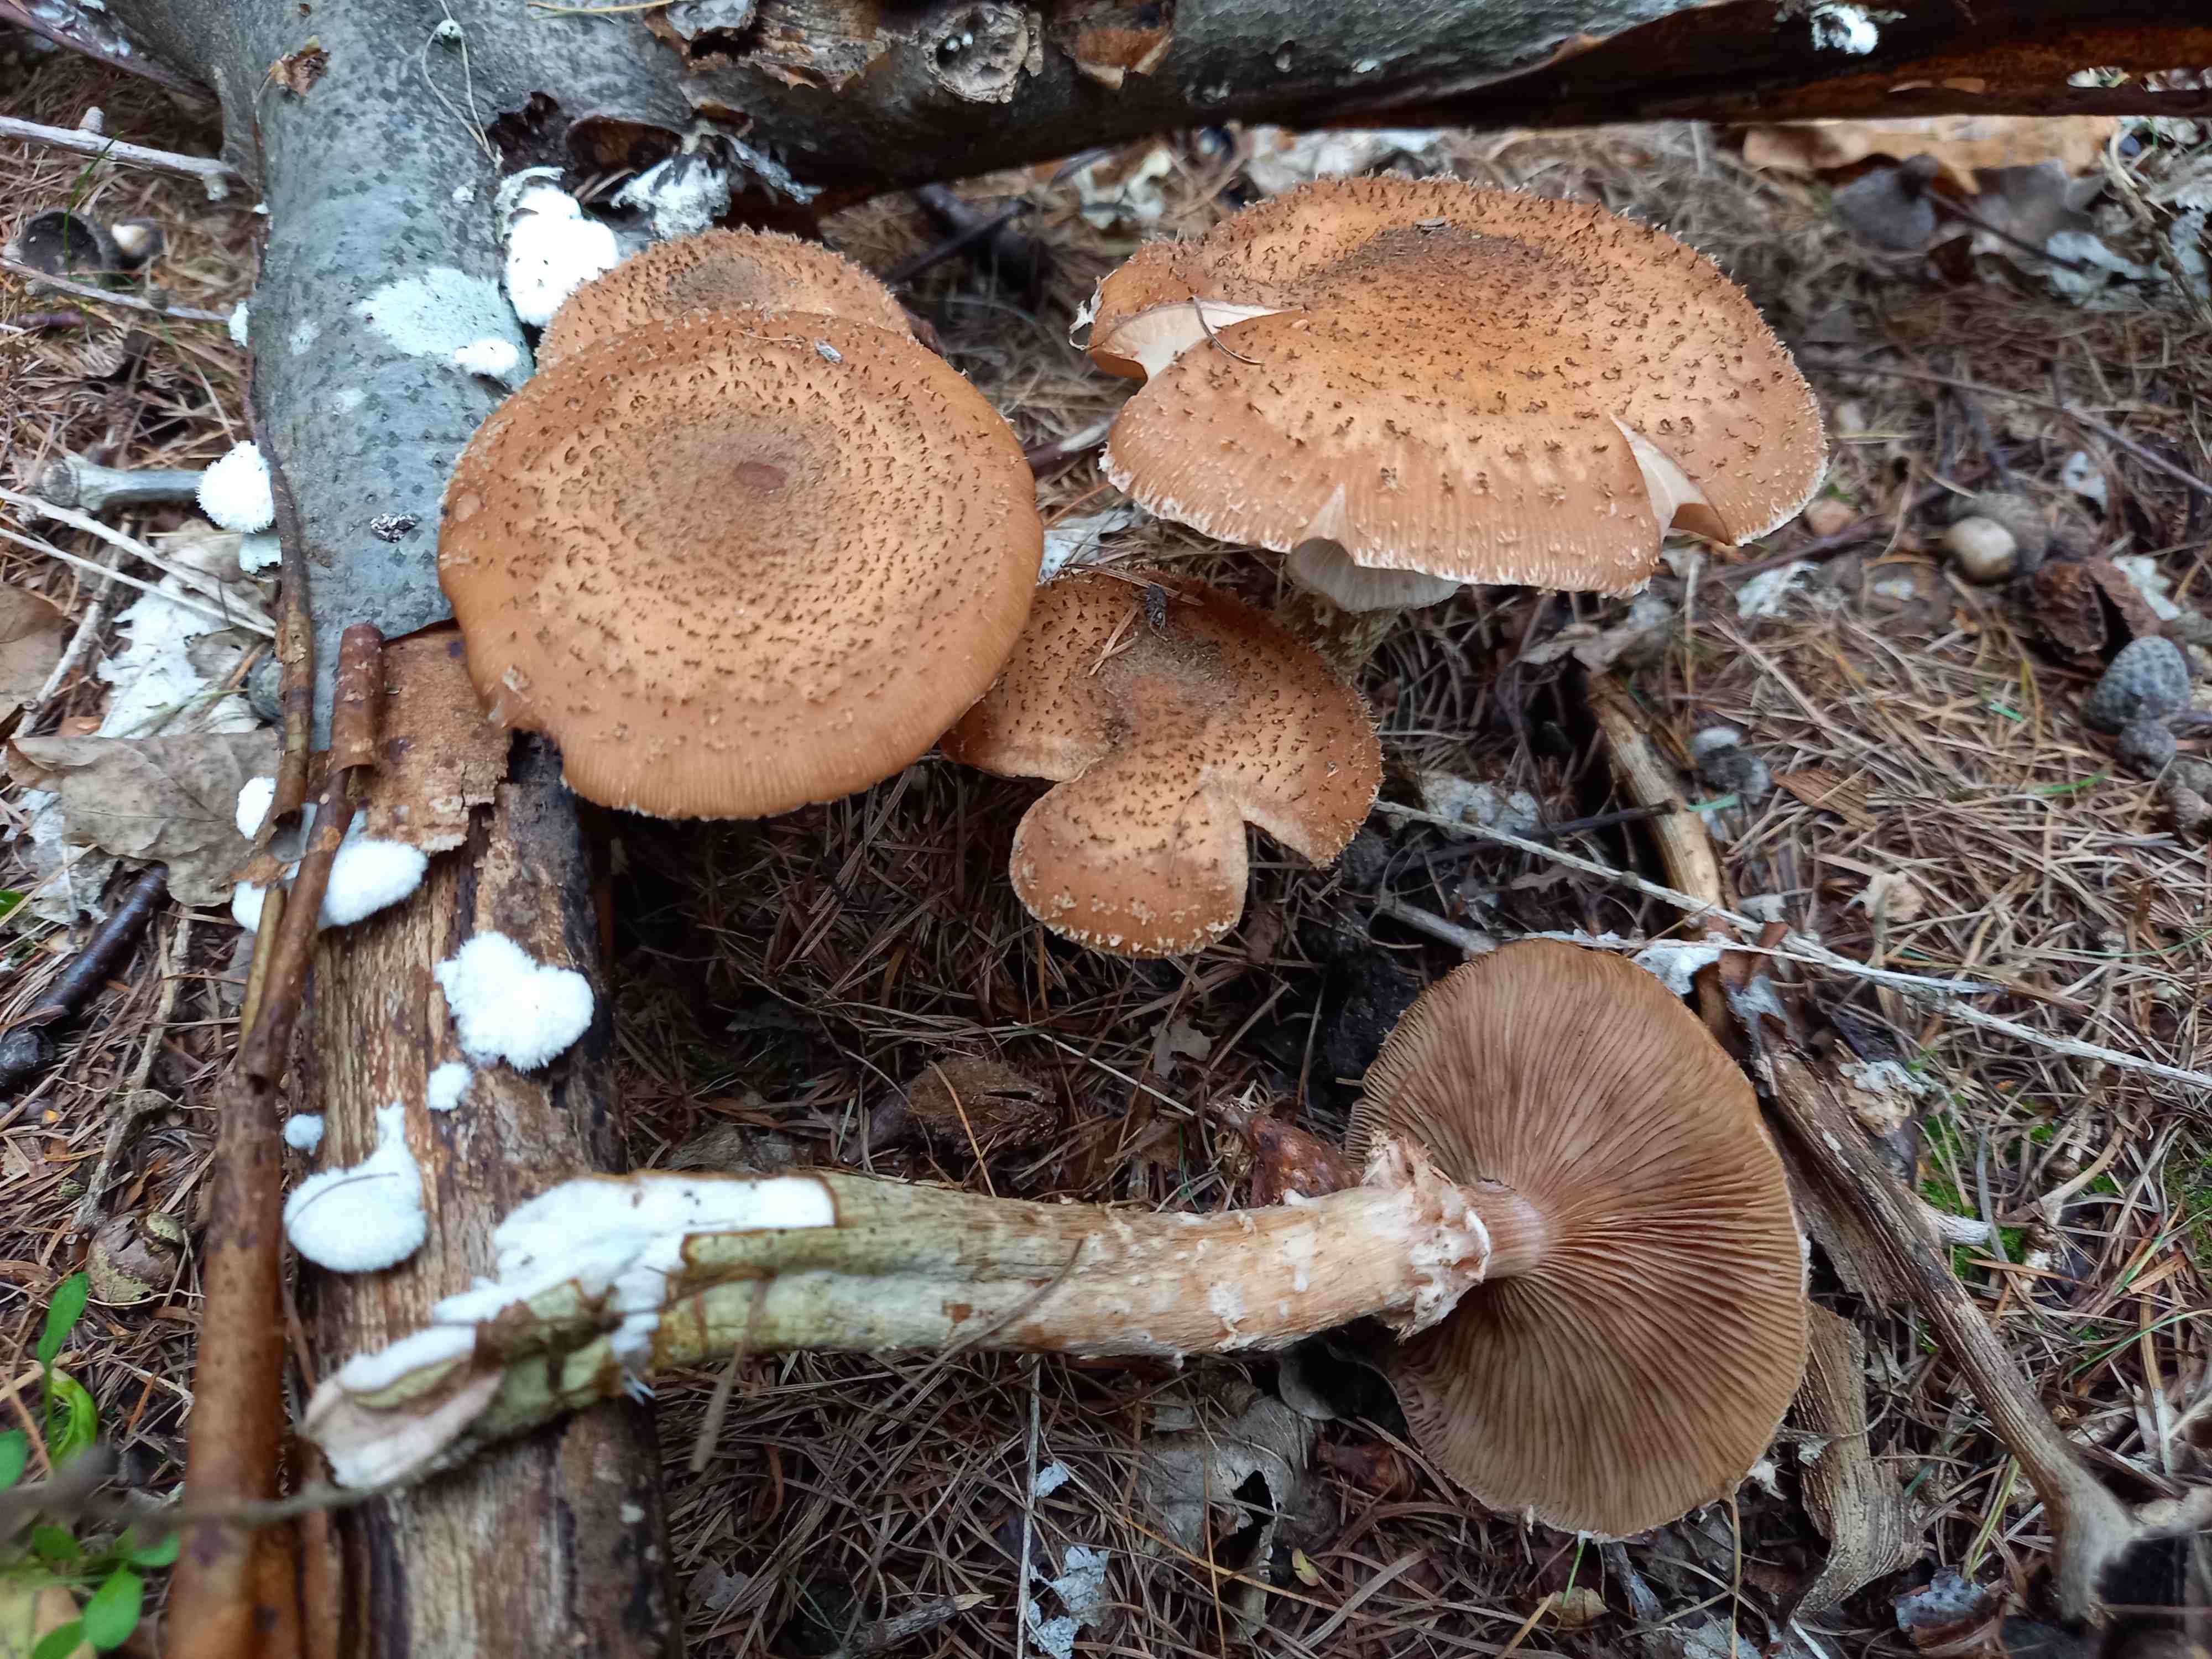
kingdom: Fungi
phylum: Basidiomycota
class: Agaricomycetes
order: Agaricales
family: Physalacriaceae
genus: Armillaria
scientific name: Armillaria ostoyae
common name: mørk honningsvamp
